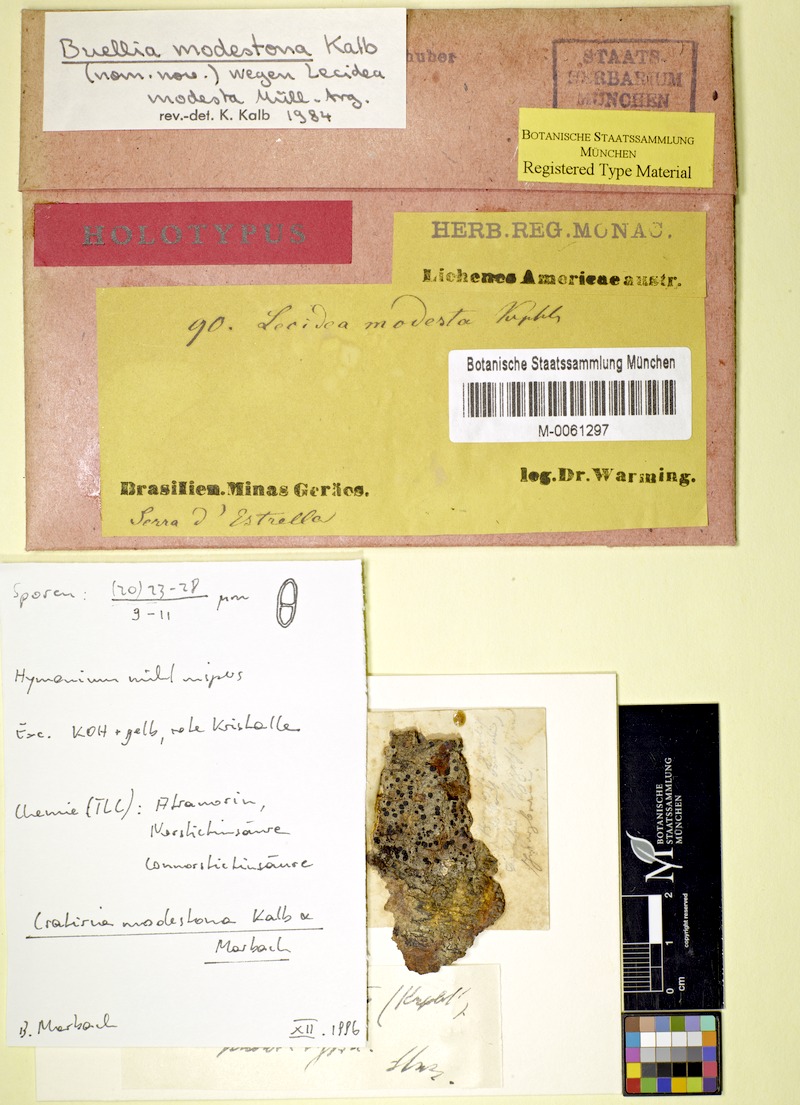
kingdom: Fungi
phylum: Ascomycota
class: Lecanoromycetes
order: Caliciales
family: Caliciaceae
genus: Cratiria
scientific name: Cratiria americana
